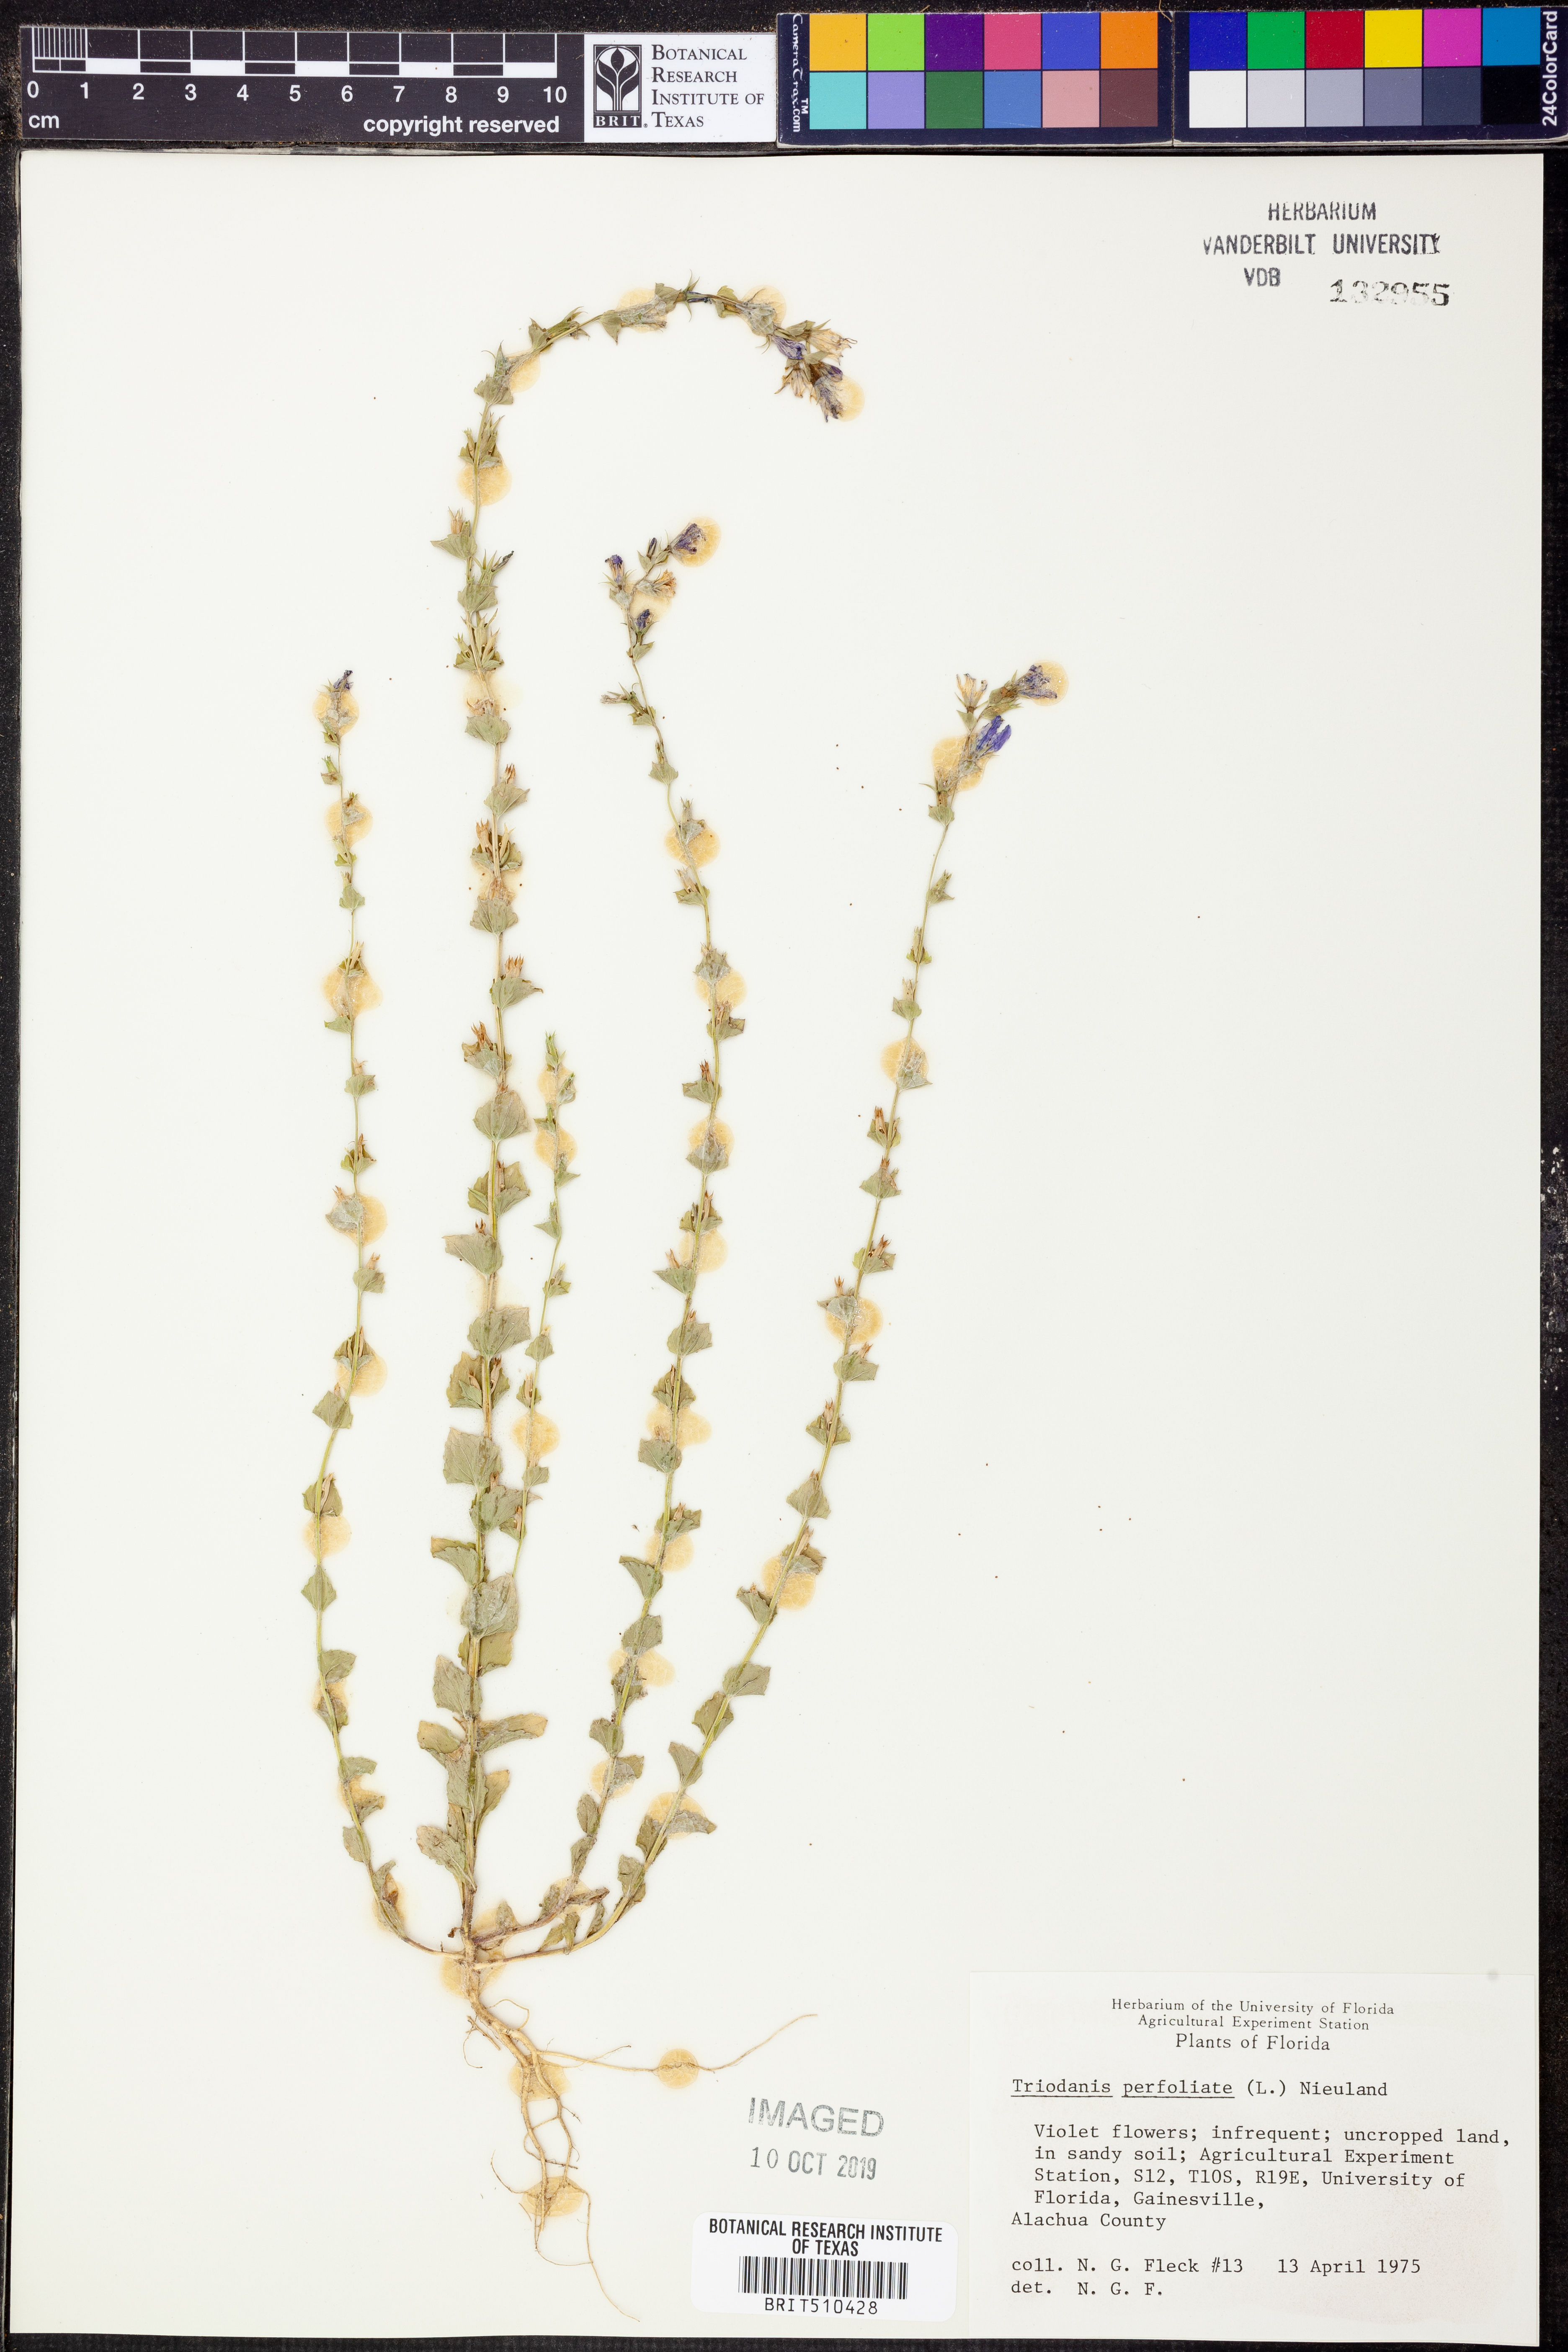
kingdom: Plantae
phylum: Tracheophyta
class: Magnoliopsida
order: Asterales
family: Campanulaceae
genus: Triodanis
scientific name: Triodanis perfoliata
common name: Clasping venus' looking-glass
